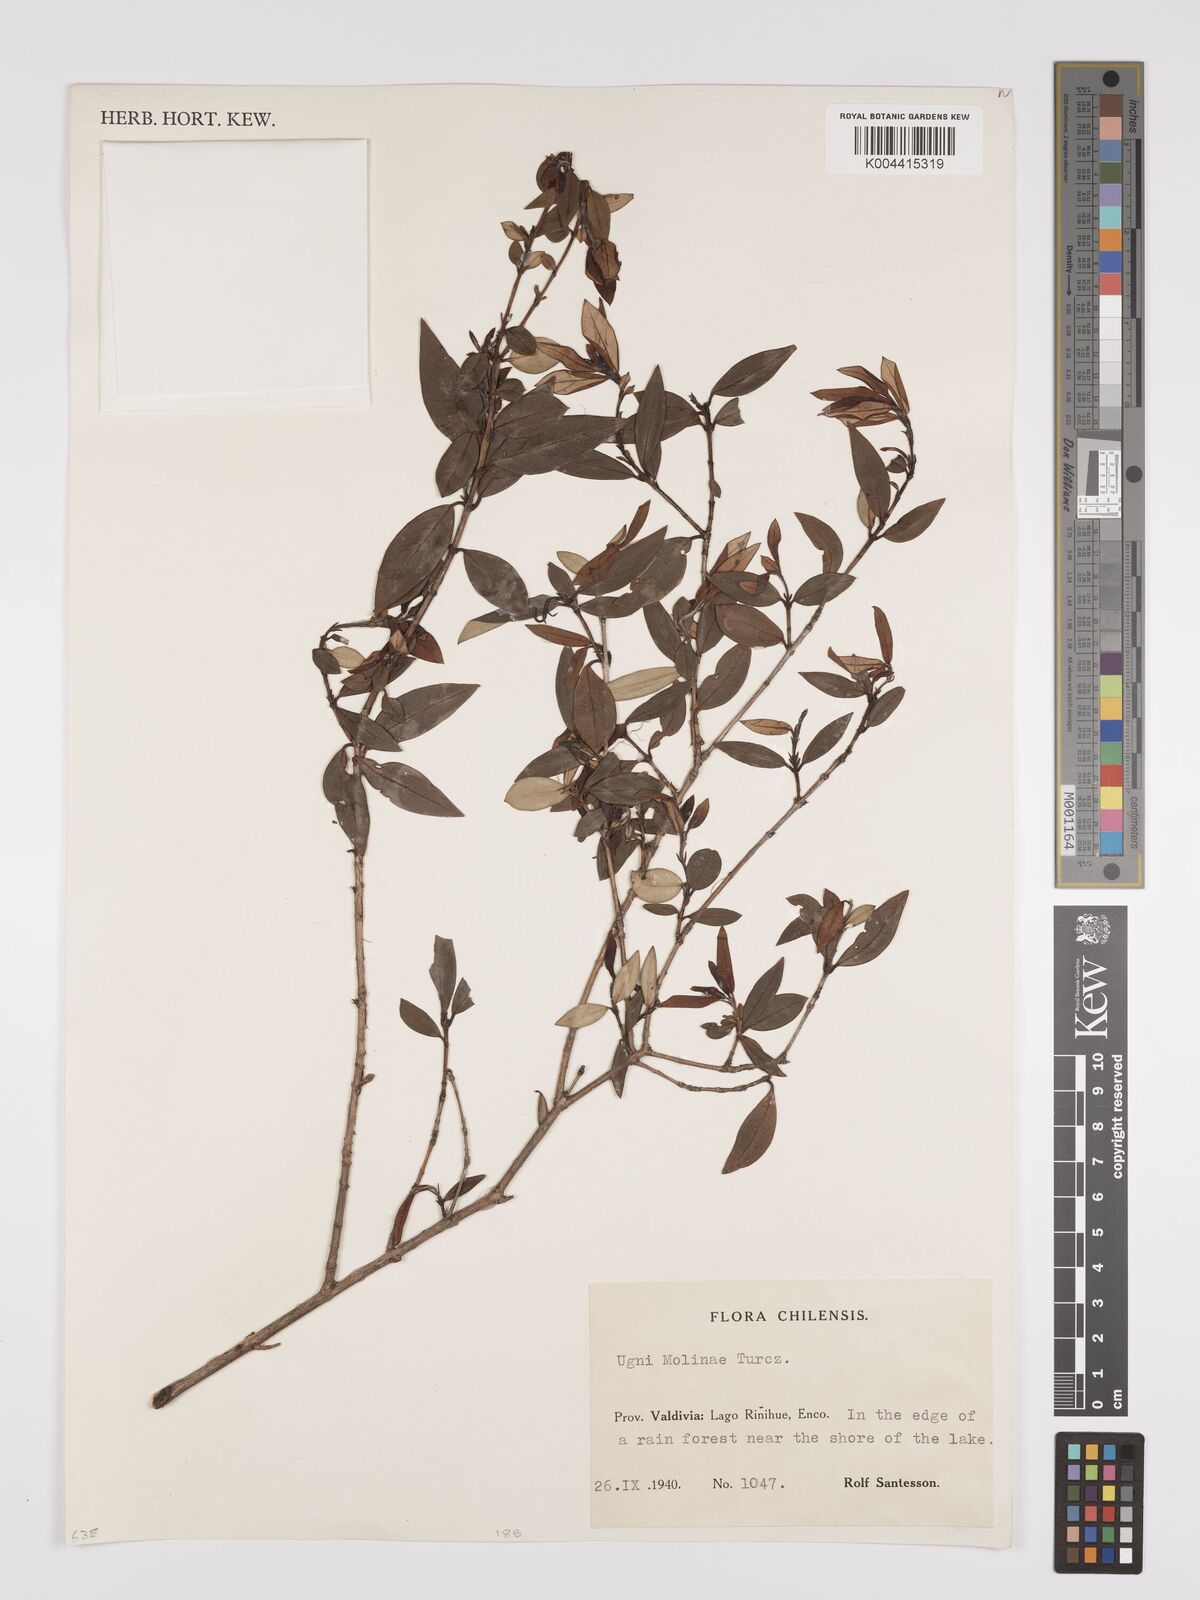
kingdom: Plantae
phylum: Tracheophyta
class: Magnoliopsida
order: Myrtales
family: Myrtaceae
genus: Ugni
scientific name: Ugni molinae
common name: Chilean-guava
